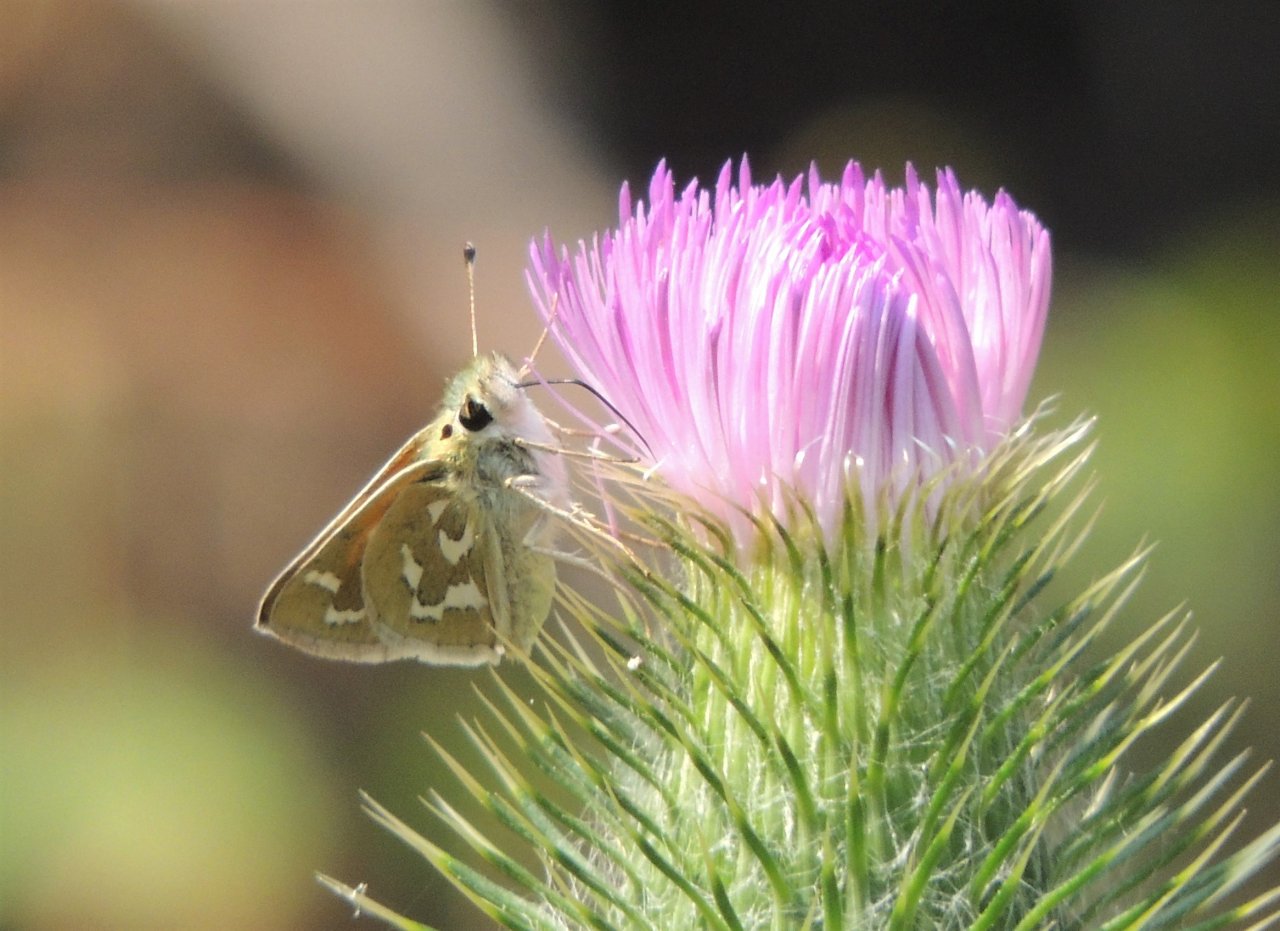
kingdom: Animalia
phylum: Arthropoda
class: Insecta
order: Lepidoptera
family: Hesperiidae
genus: Hesperia
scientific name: Hesperia comma
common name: Western Branded Skipper
